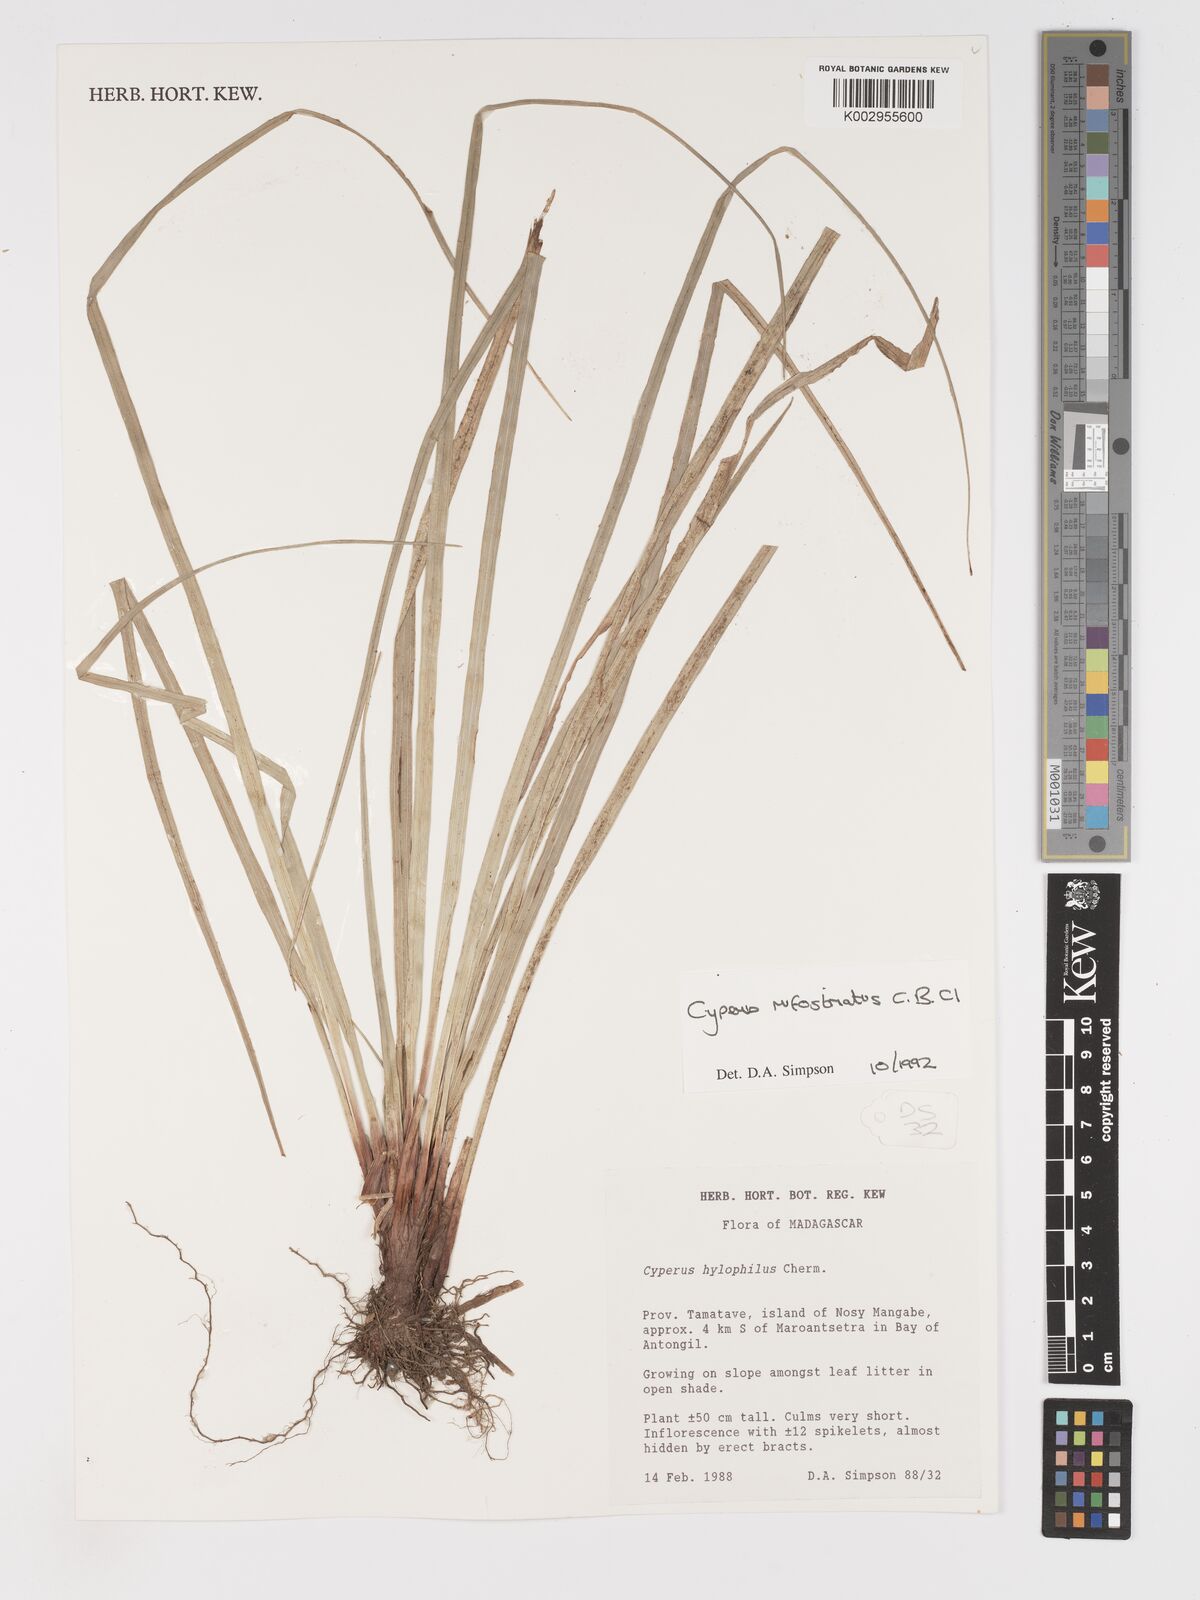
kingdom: Plantae
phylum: Tracheophyta
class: Liliopsida
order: Poales
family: Cyperaceae
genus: Cyperus
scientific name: Cyperus rufostriatus
